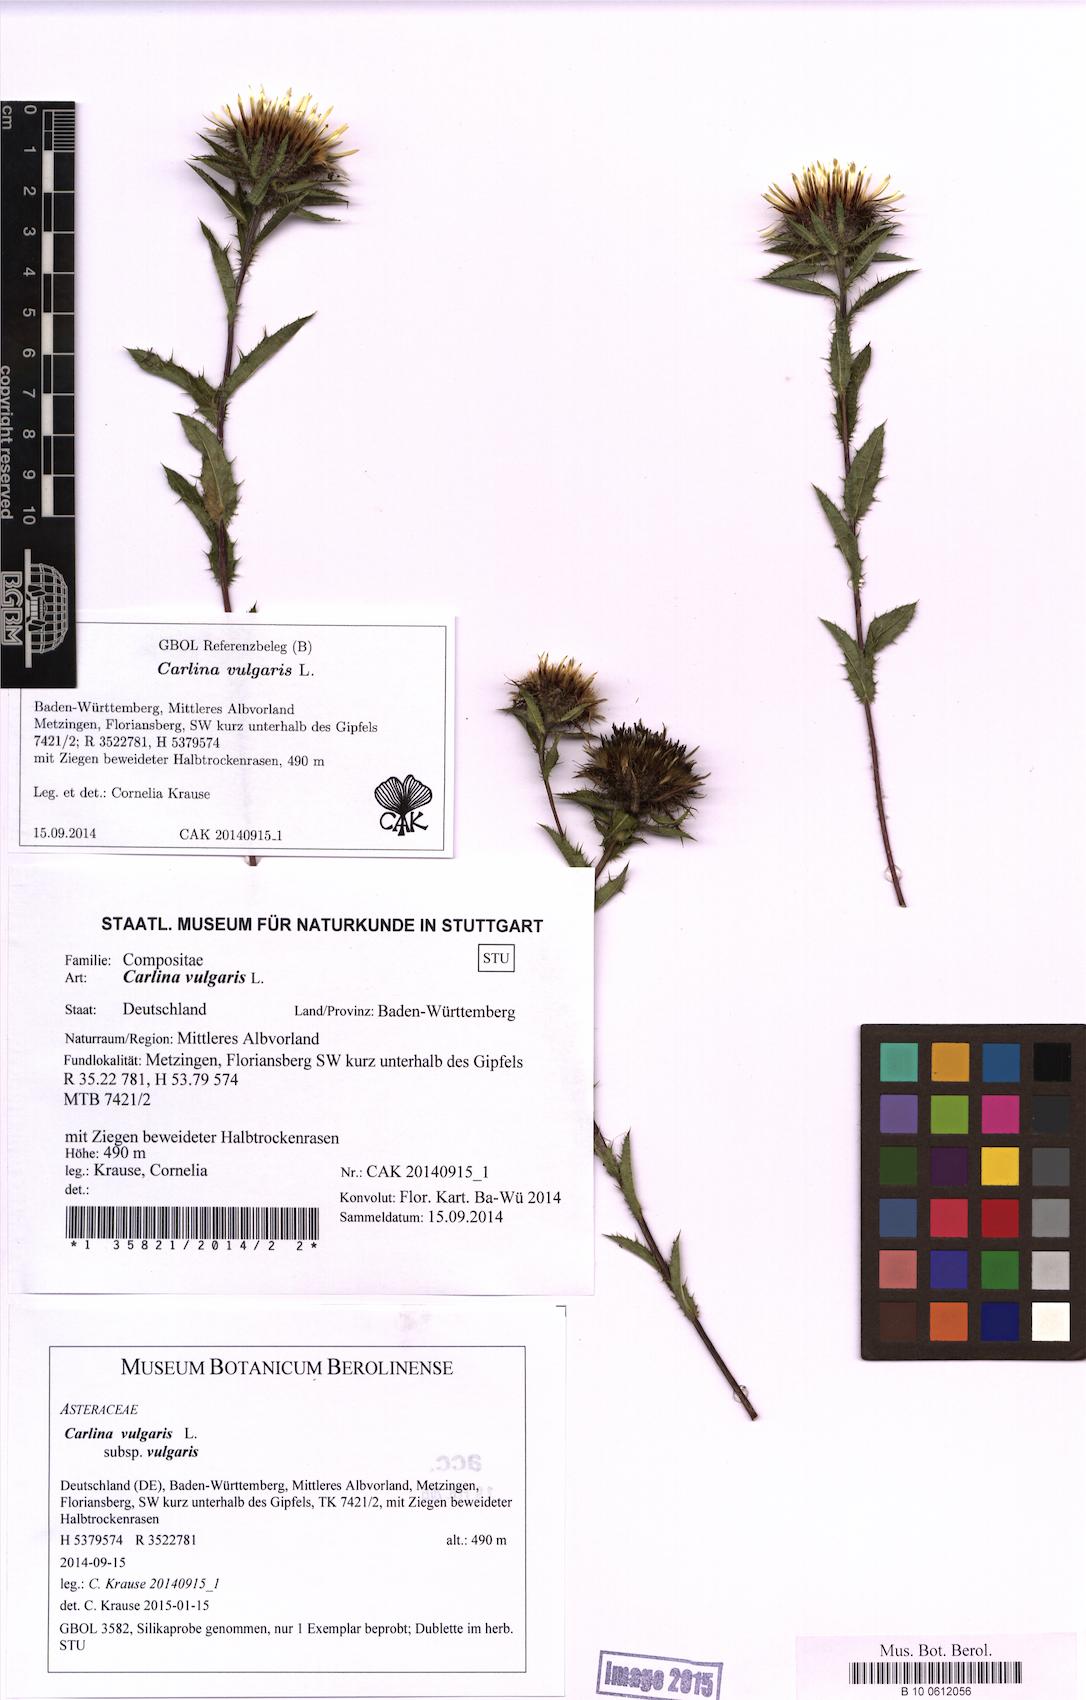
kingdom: Plantae
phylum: Tracheophyta
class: Magnoliopsida
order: Asterales
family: Asteraceae
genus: Carlina
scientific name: Carlina vulgaris
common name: Carline thistle
